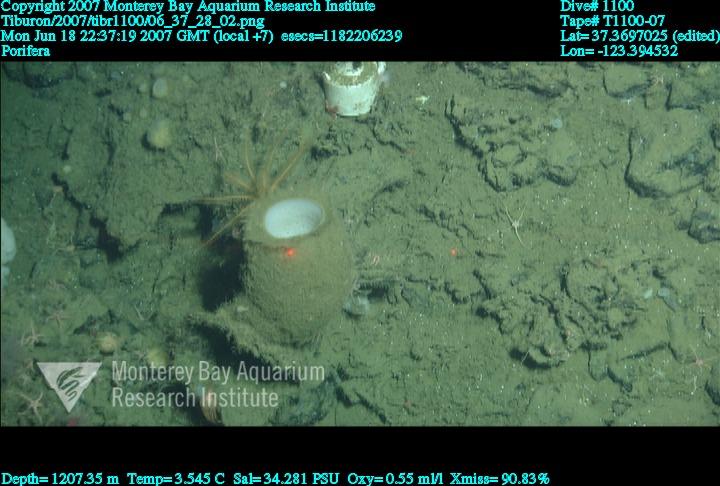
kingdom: Animalia
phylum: Porifera
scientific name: Porifera
